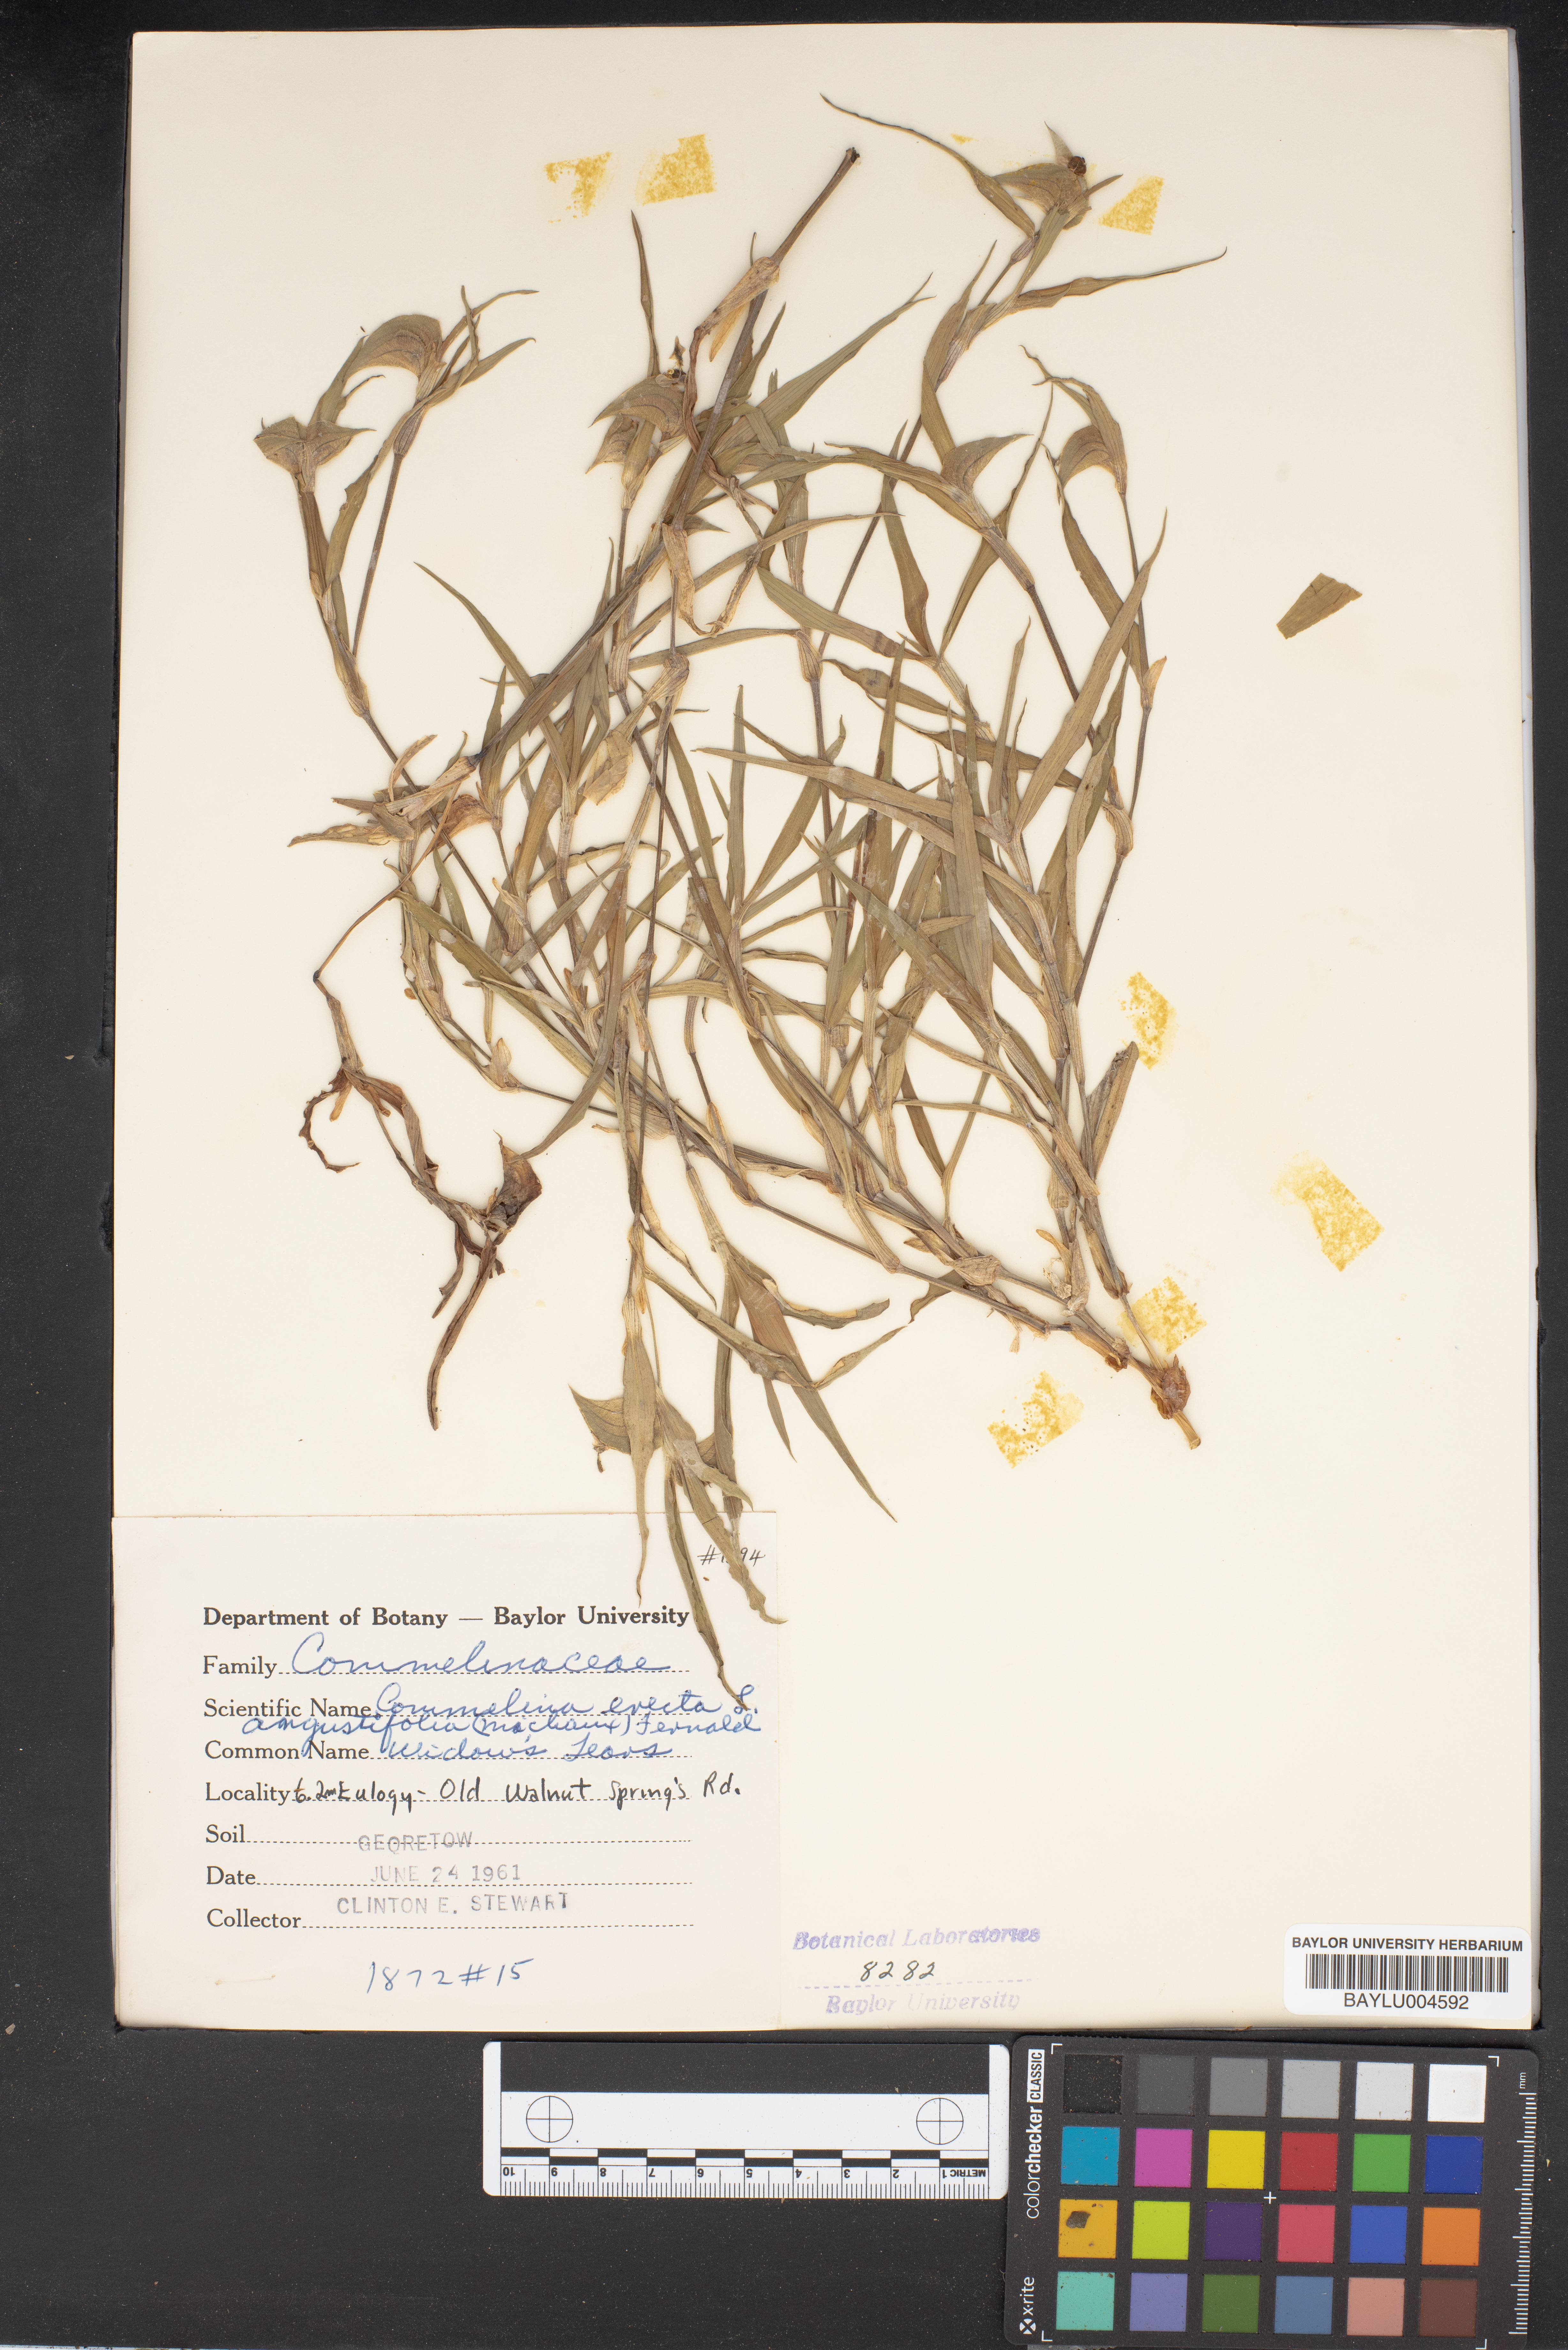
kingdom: Plantae
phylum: Tracheophyta
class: Liliopsida
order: Commelinales
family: Commelinaceae
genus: Commelina
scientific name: Commelina erecta
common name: Blousel blommetjie
